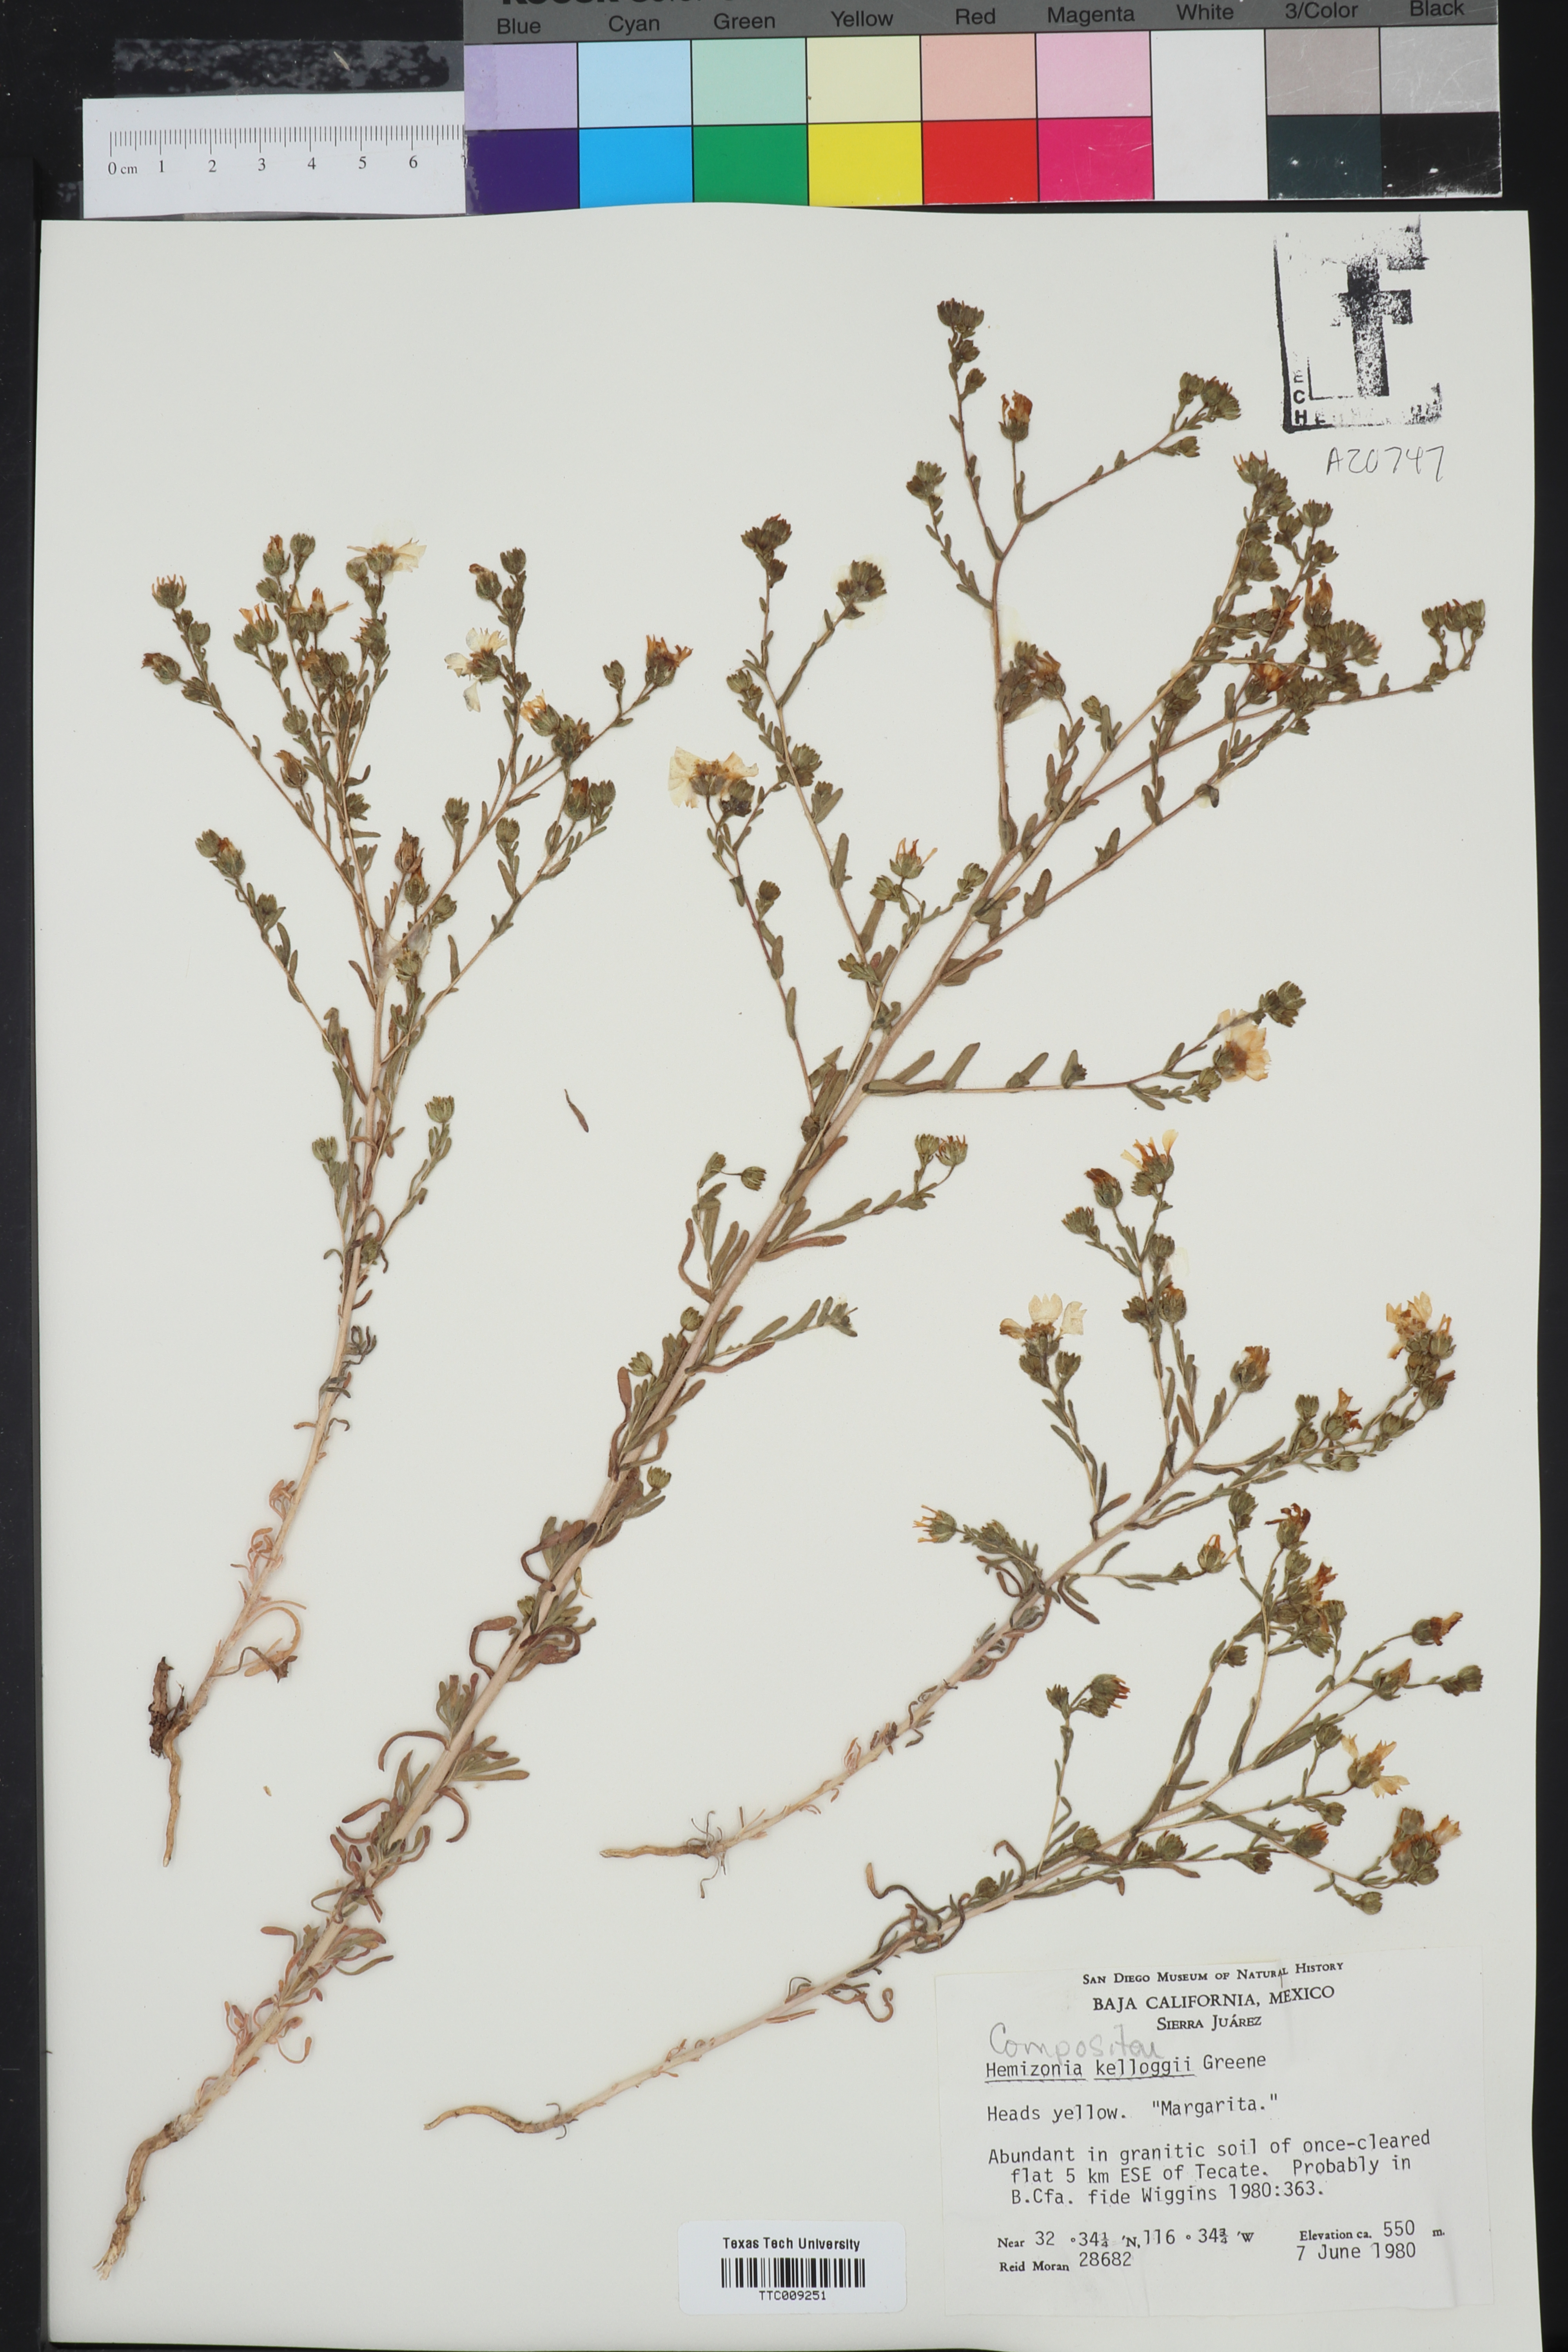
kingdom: Plantae
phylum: Tracheophyta
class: Magnoliopsida
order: Asterales
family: Asteraceae
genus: Deinandra
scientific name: Deinandra kelloggii
